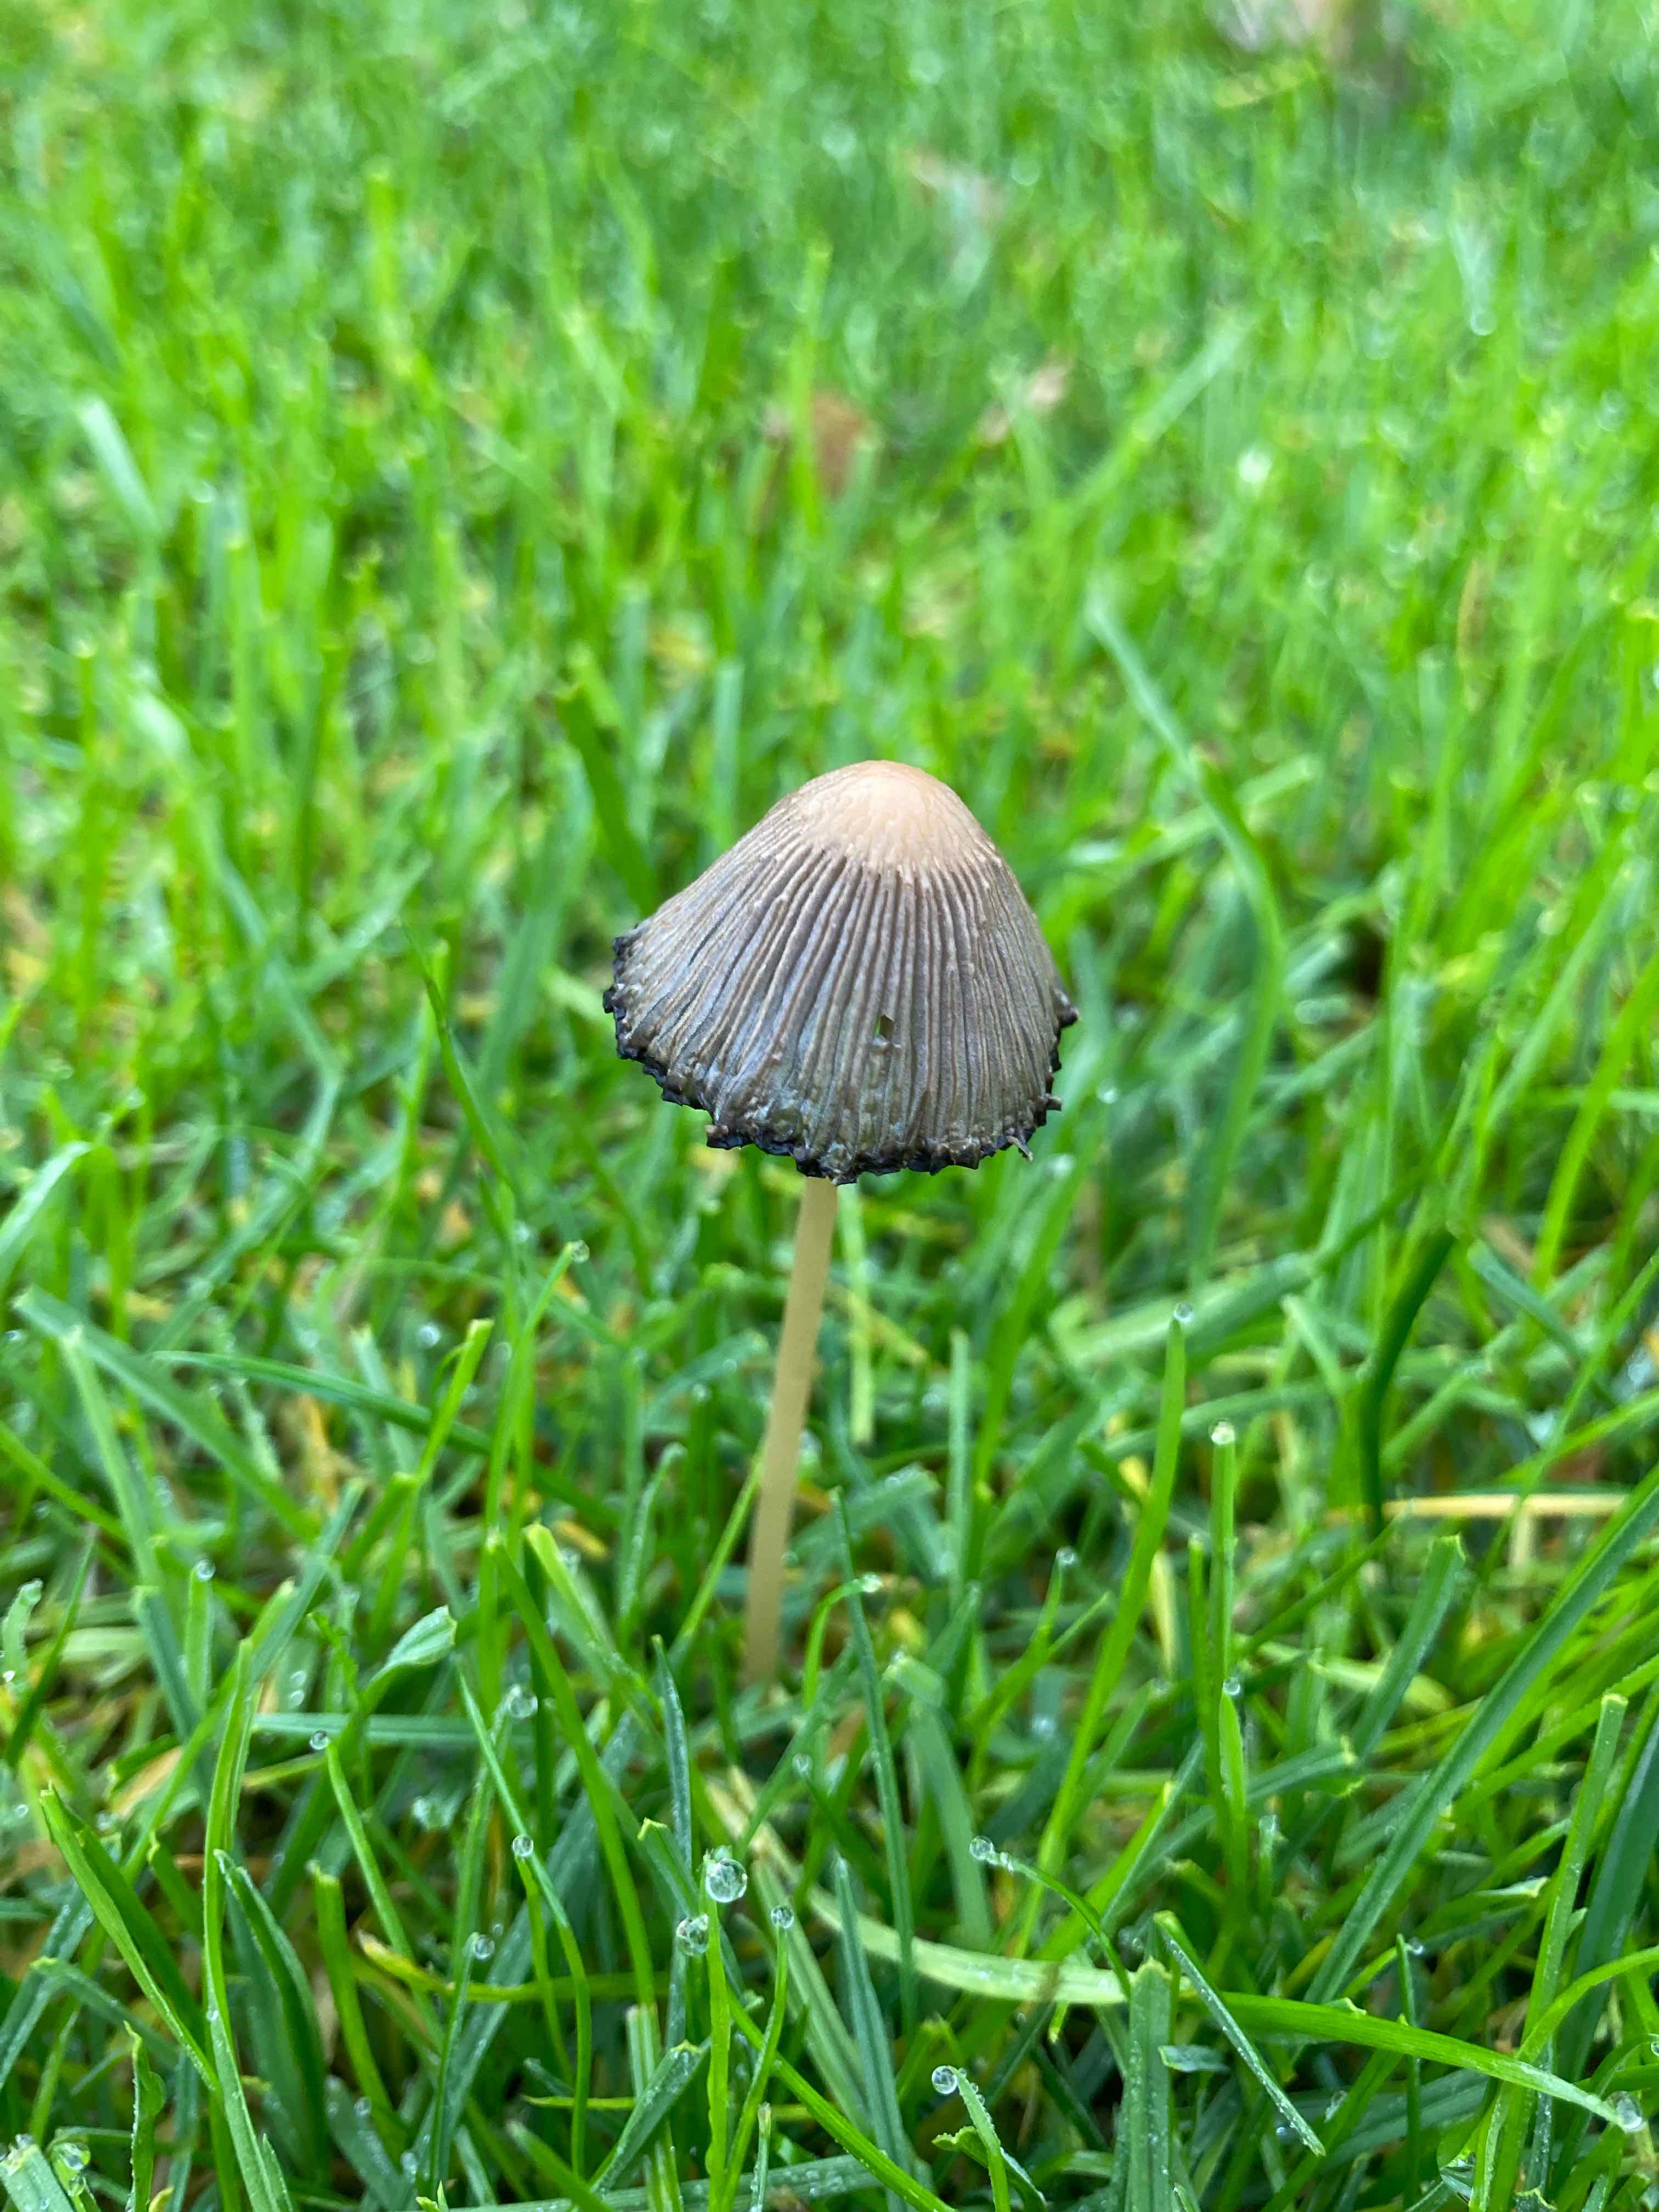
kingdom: Fungi
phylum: Basidiomycota
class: Agaricomycetes
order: Agaricales
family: Psathyrellaceae
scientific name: Psathyrellaceae
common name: mørkhatfamilien
